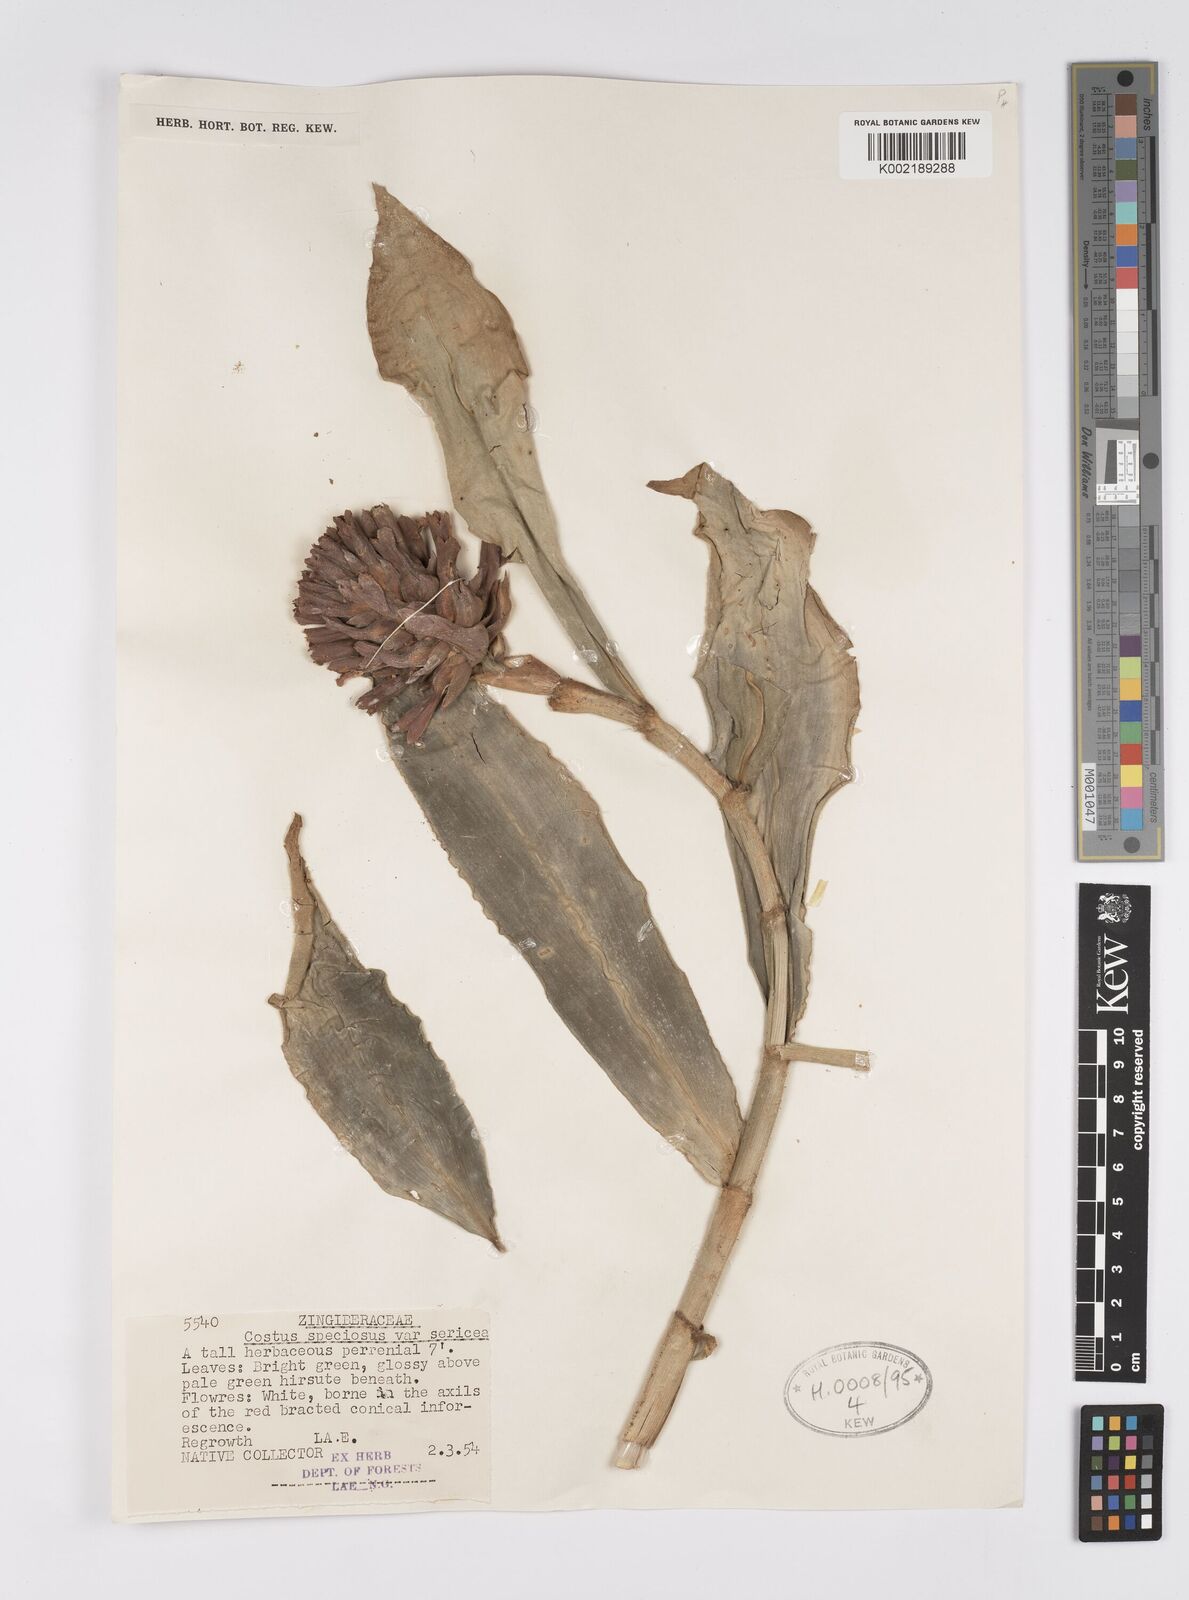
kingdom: Plantae
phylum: Tracheophyta
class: Liliopsida
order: Zingiberales
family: Costaceae
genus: Hellenia
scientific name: Hellenia speciosa
